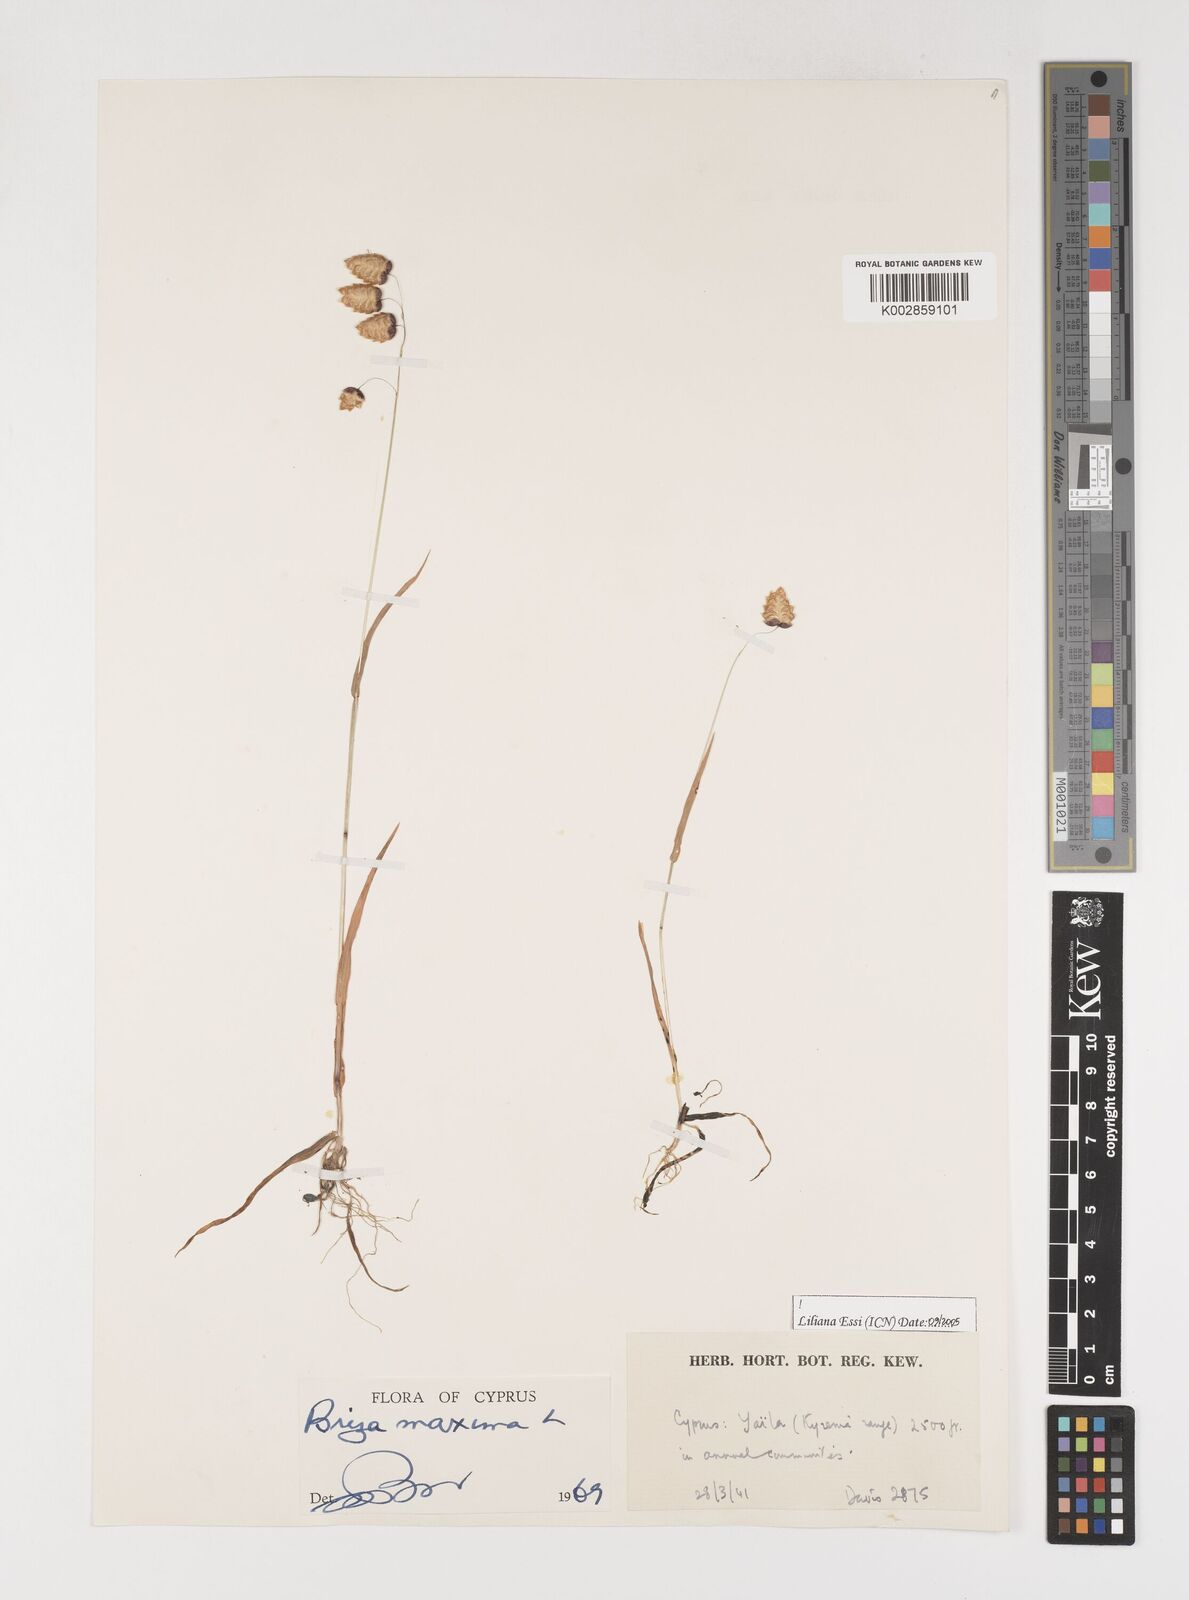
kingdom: Plantae
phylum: Tracheophyta
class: Liliopsida
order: Poales
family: Poaceae
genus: Briza
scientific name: Briza maxima
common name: Big quakinggrass
